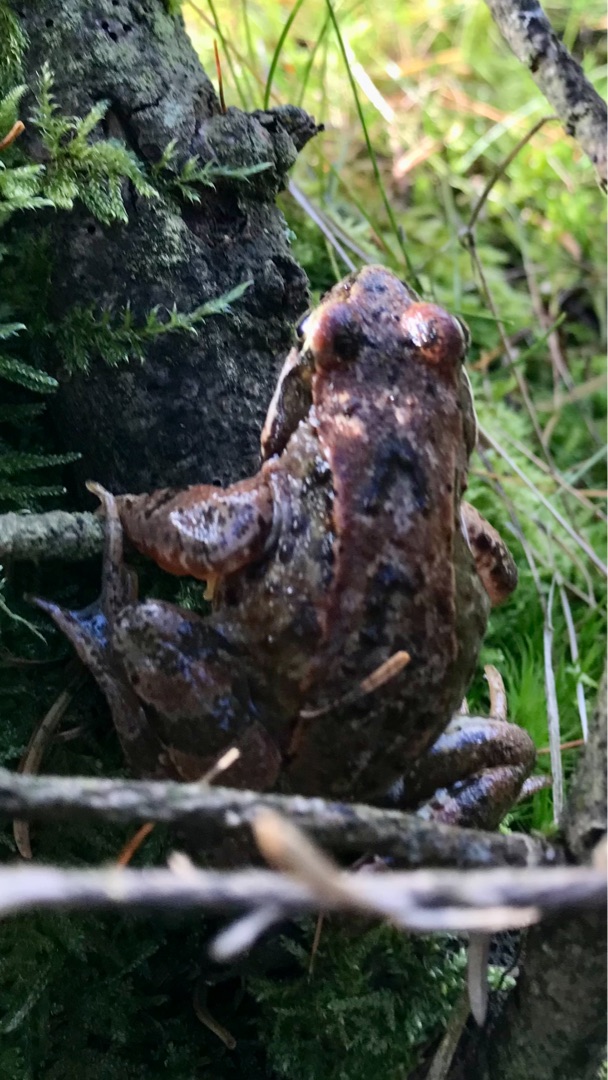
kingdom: Animalia
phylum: Chordata
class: Amphibia
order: Anura
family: Ranidae
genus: Rana
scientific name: Rana temporaria
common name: Butsnudet frø
